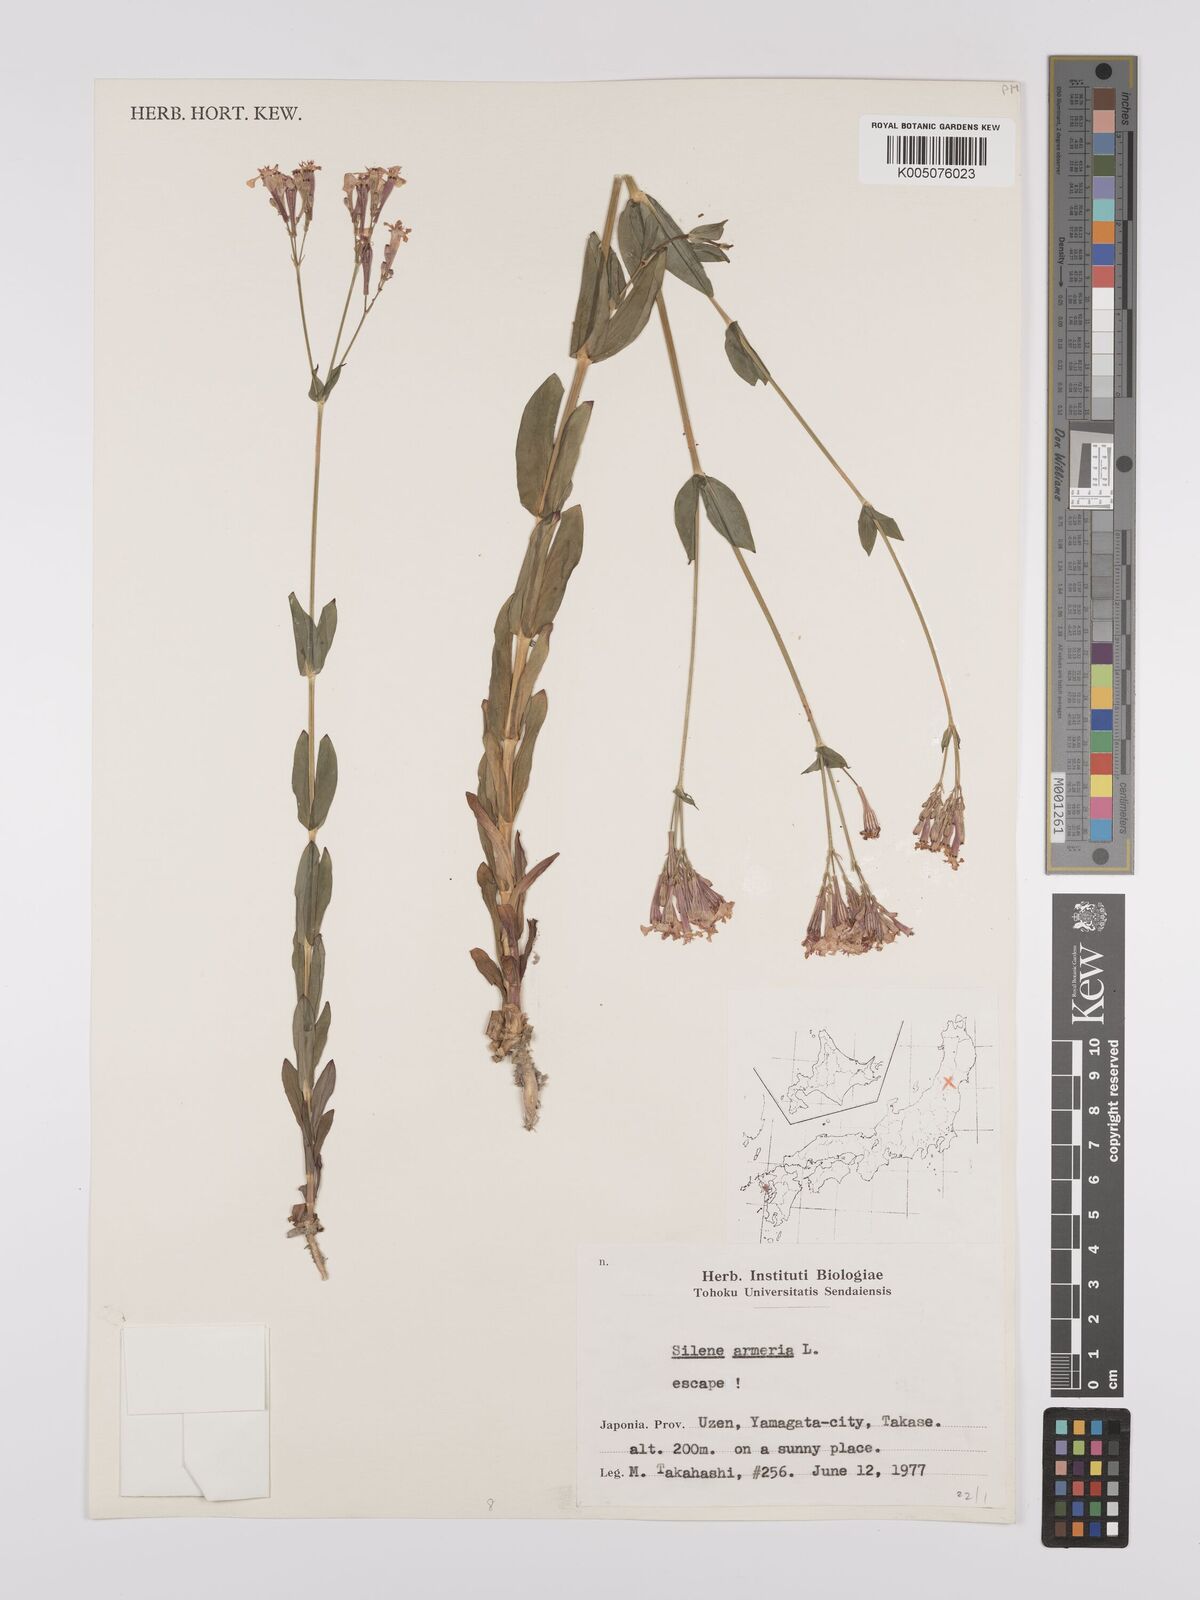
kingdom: Plantae
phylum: Tracheophyta
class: Magnoliopsida
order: Caryophyllales
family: Caryophyllaceae
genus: Silene
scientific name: Silene
